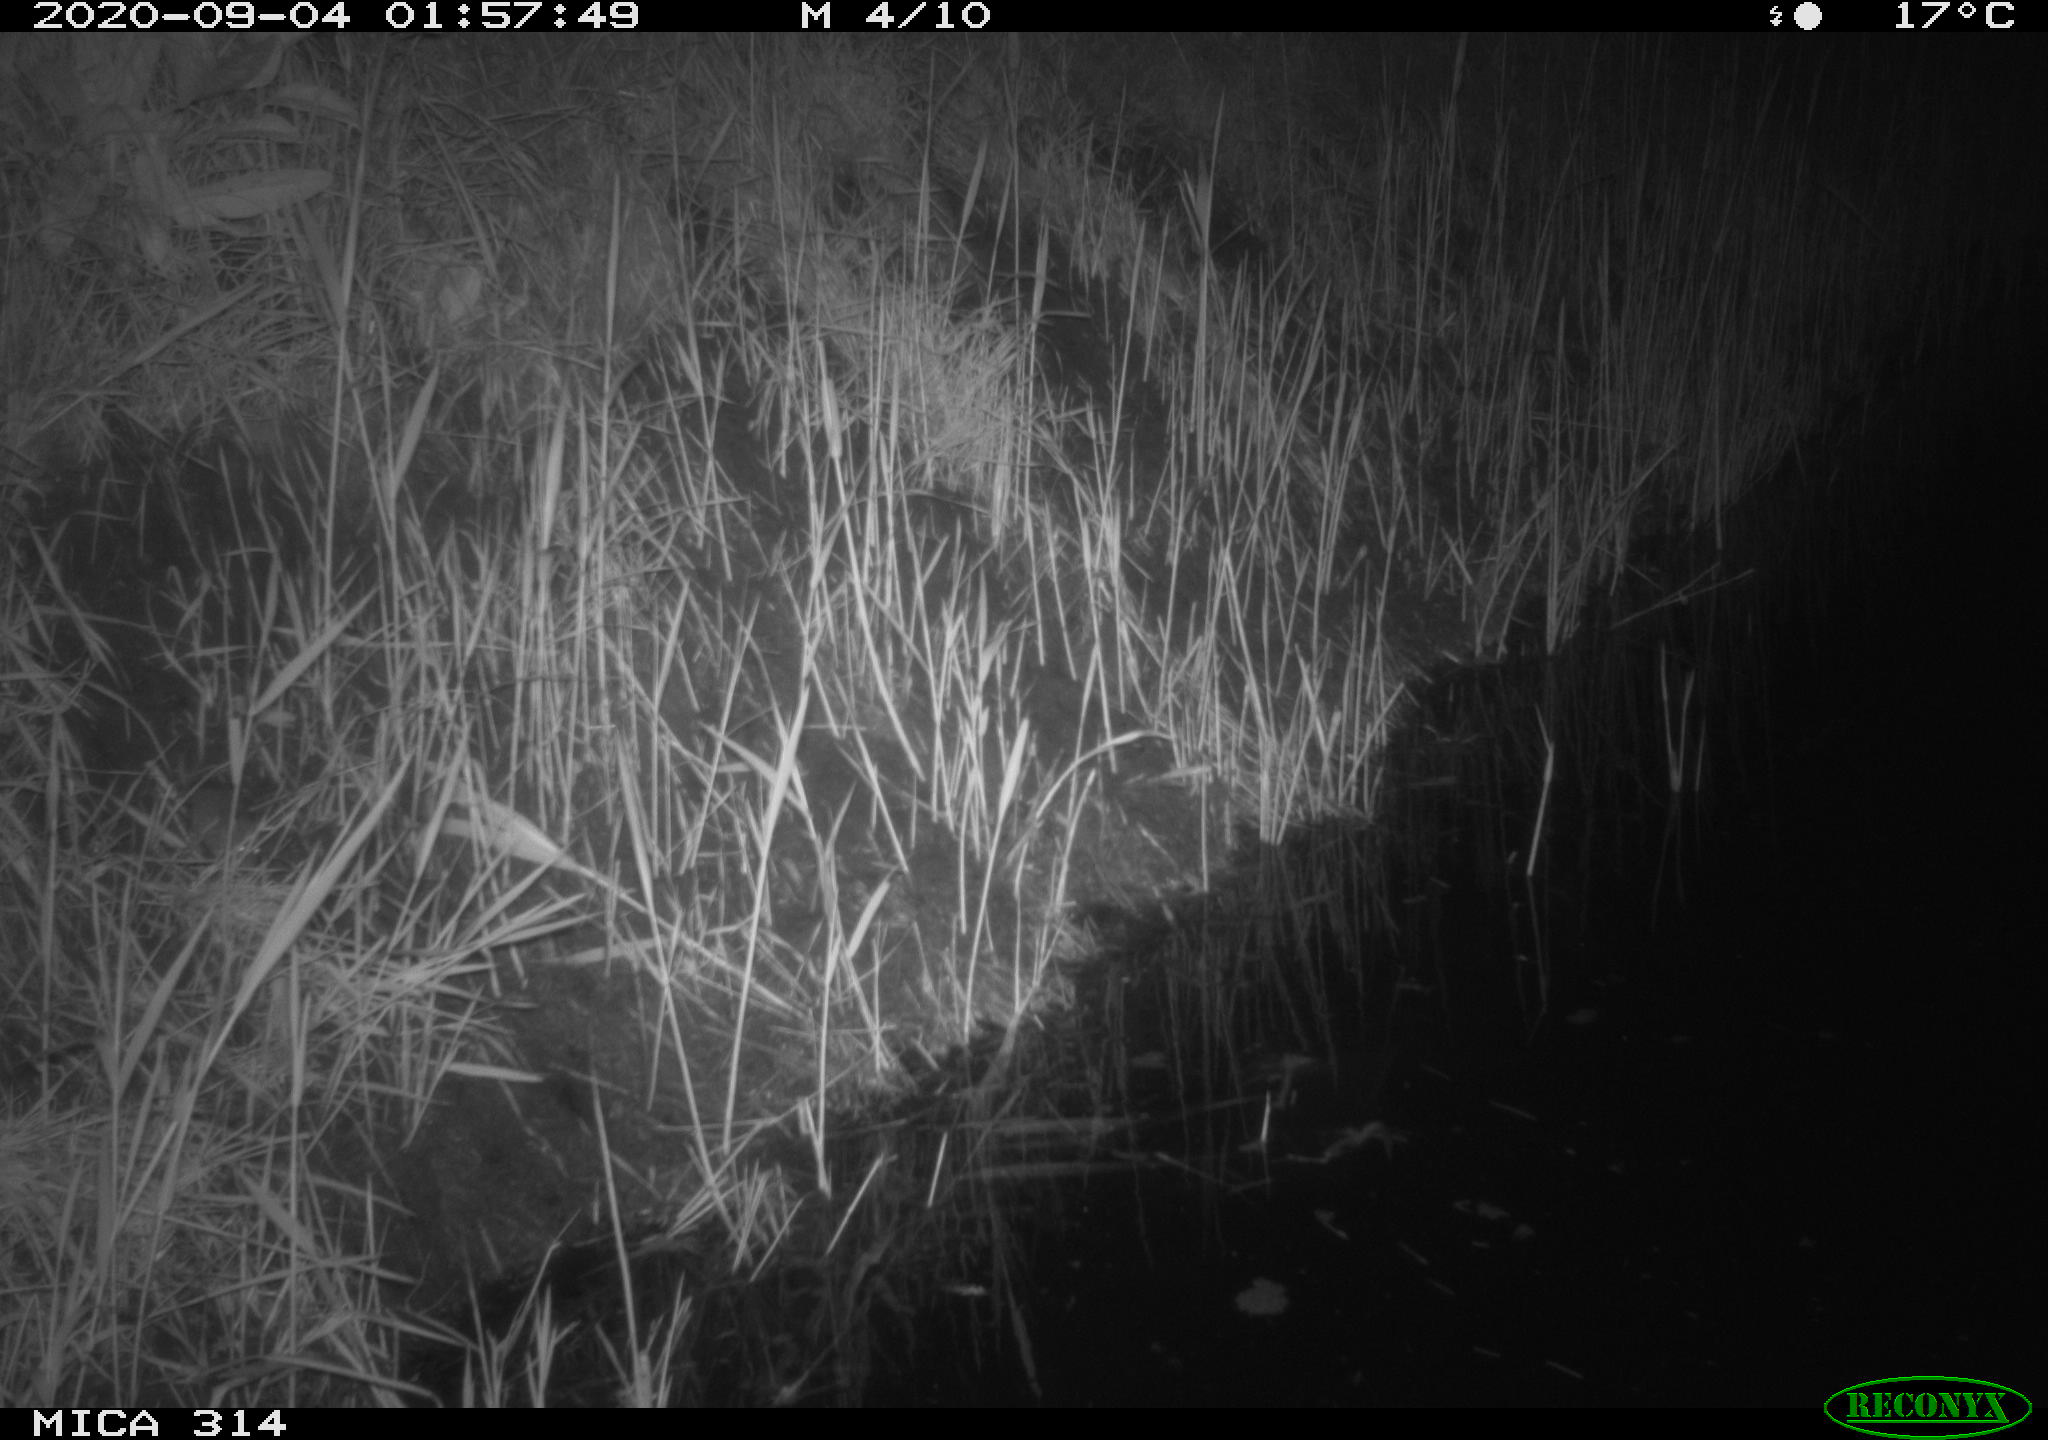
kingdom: Animalia
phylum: Chordata
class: Mammalia
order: Rodentia
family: Muridae
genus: Rattus
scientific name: Rattus norvegicus
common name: Brown rat
